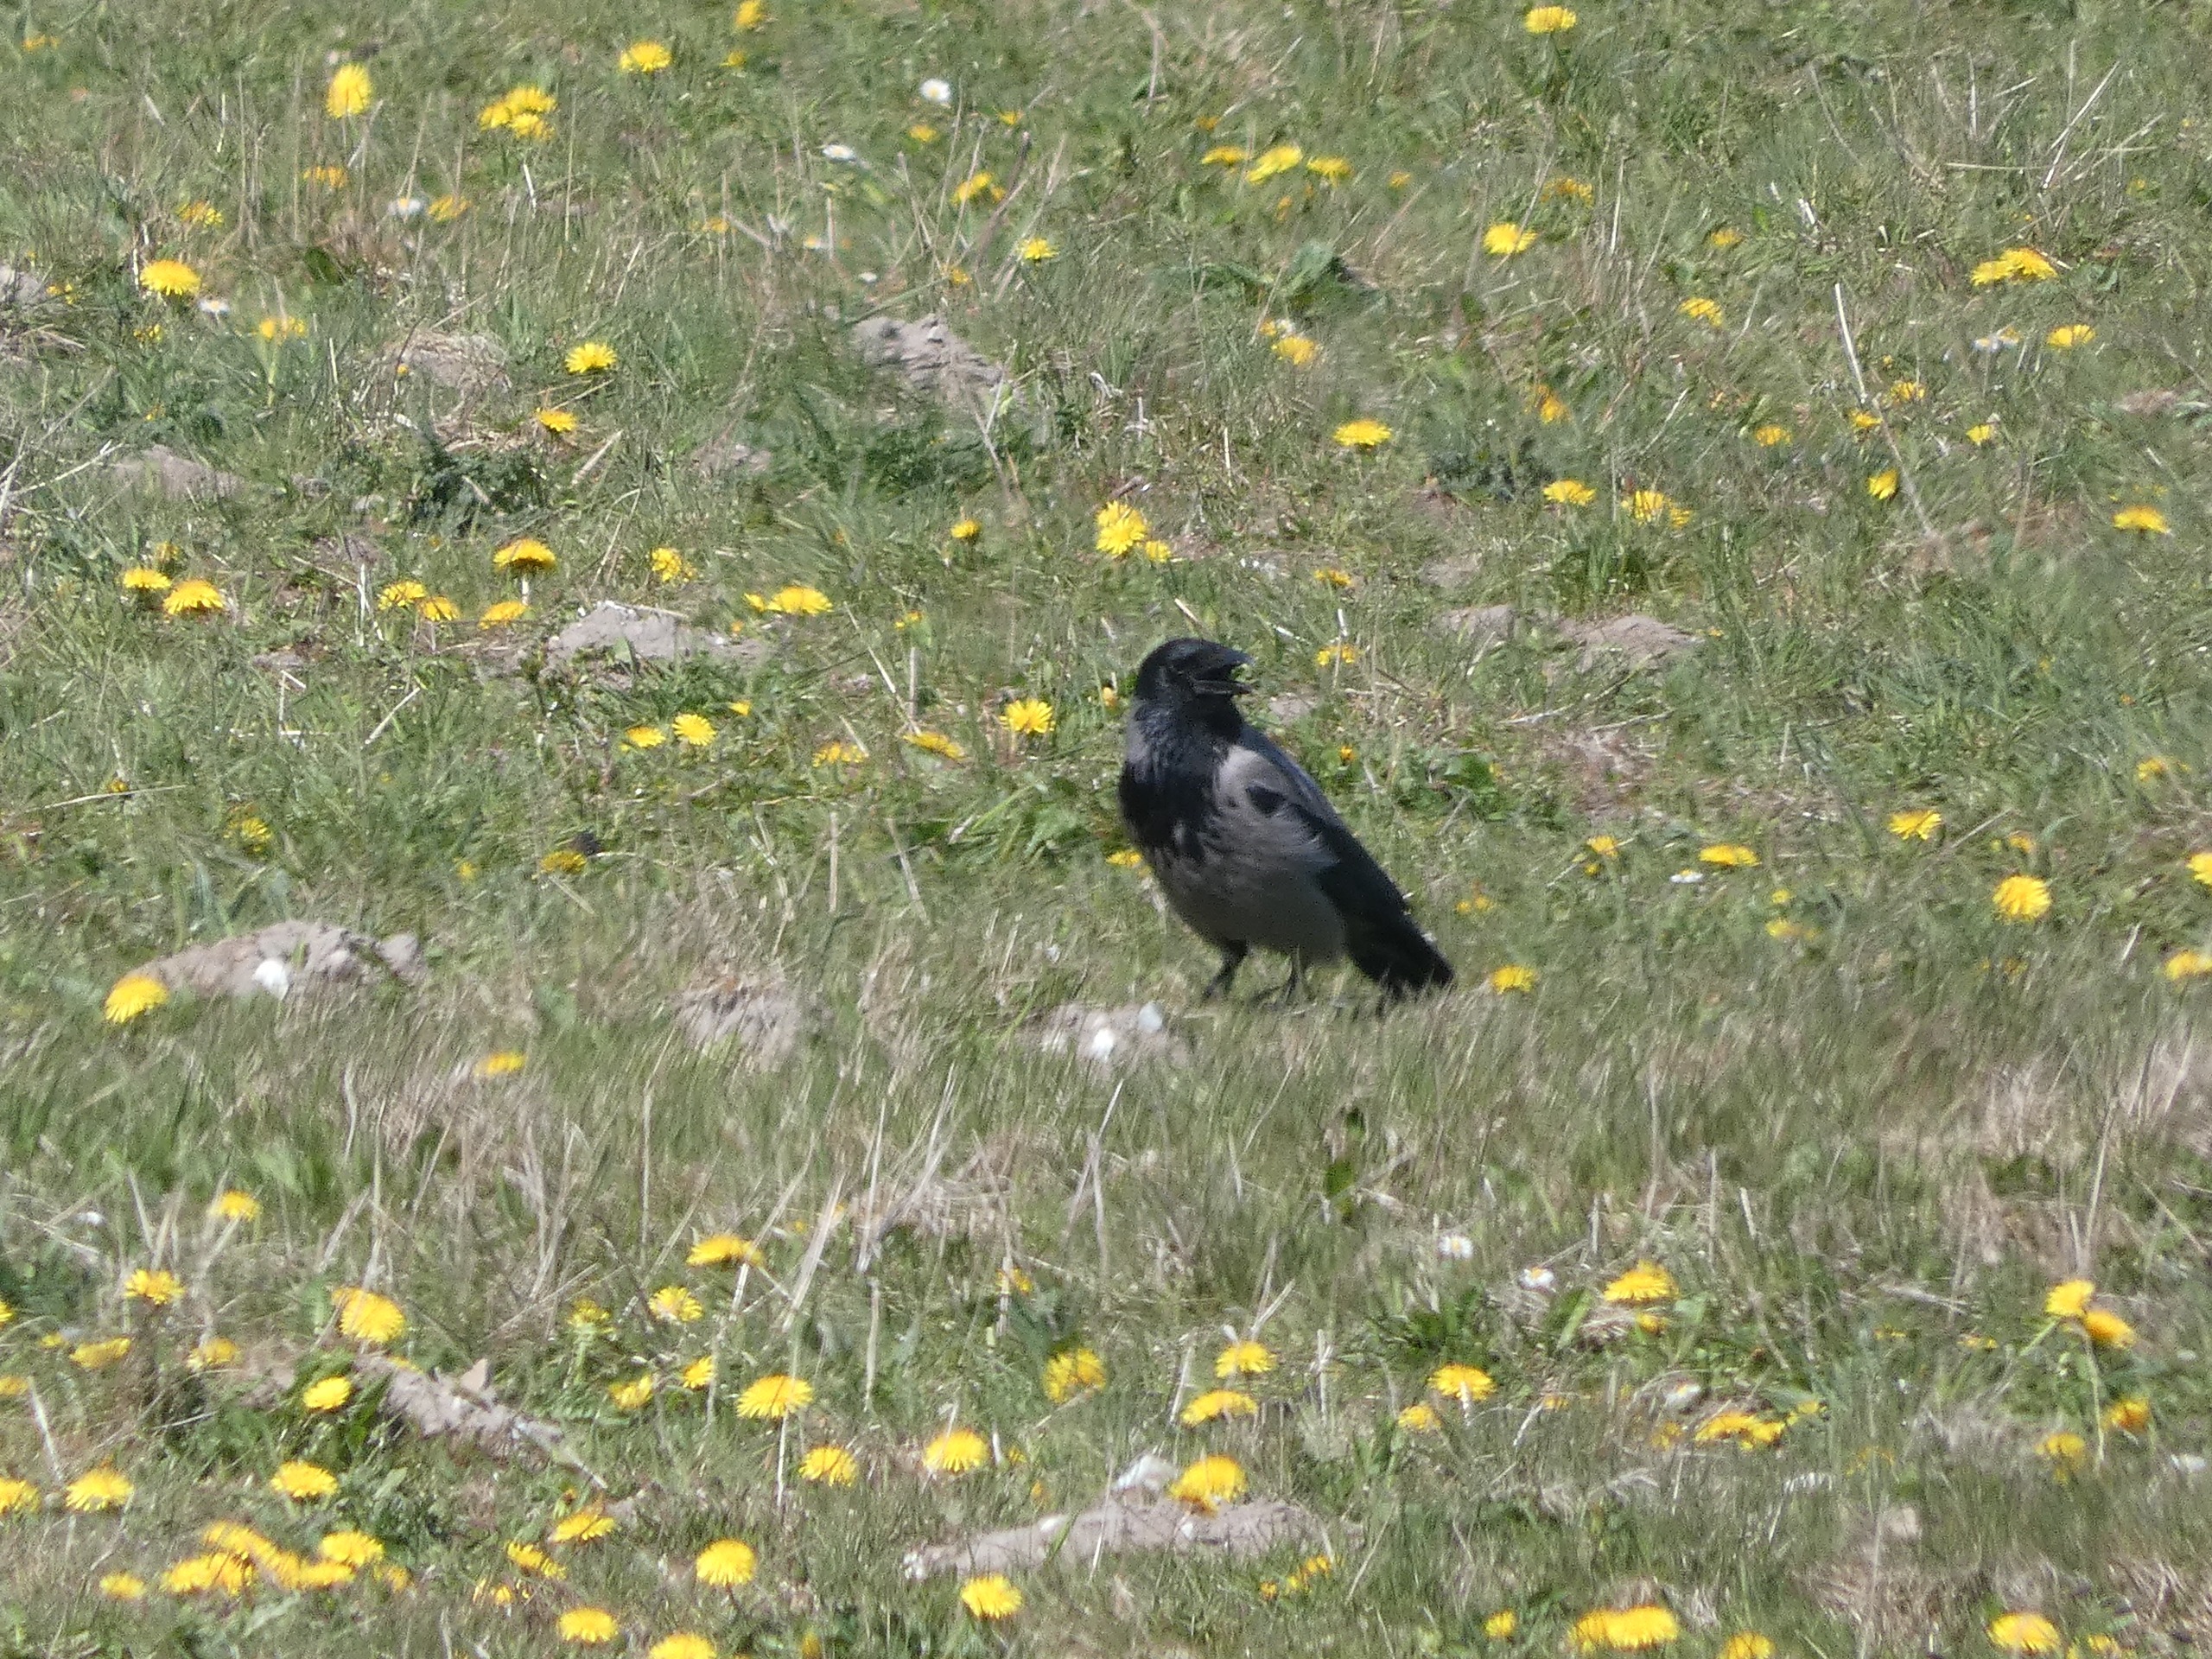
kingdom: Animalia
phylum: Chordata
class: Aves
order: Passeriformes
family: Corvidae
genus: Corvus
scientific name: Corvus cornix
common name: Gråkrage
